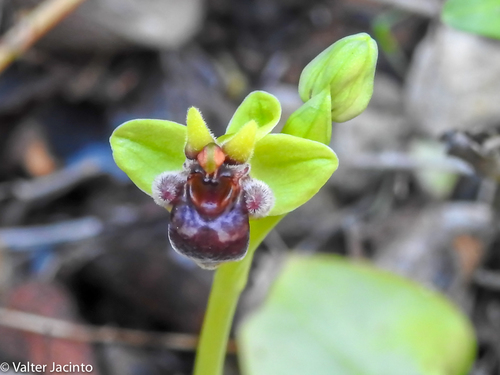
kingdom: Plantae
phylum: Tracheophyta
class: Liliopsida
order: Asparagales
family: Orchidaceae
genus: Ophrys
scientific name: Ophrys bombyliflora
